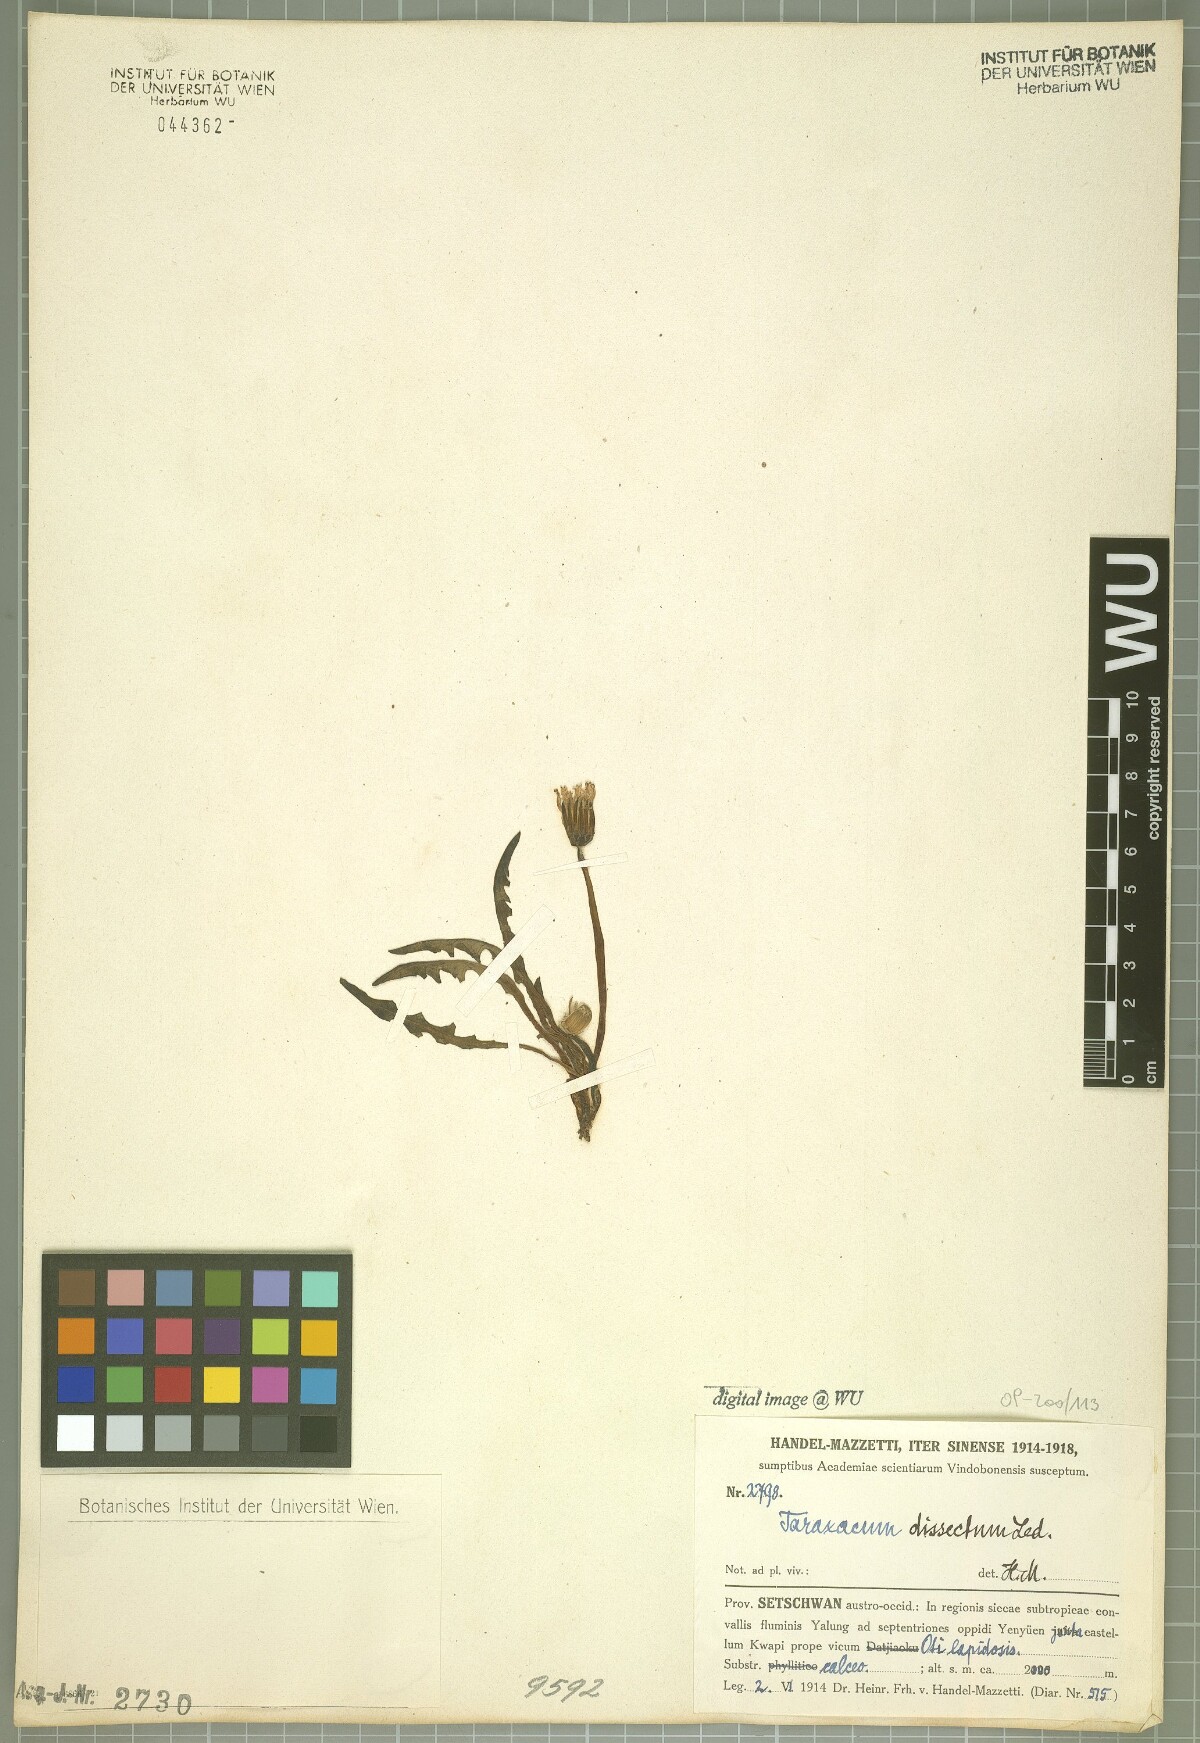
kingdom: Plantae
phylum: Tracheophyta
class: Magnoliopsida
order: Asterales
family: Asteraceae
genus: Taraxacum
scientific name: Taraxacum dissectum
